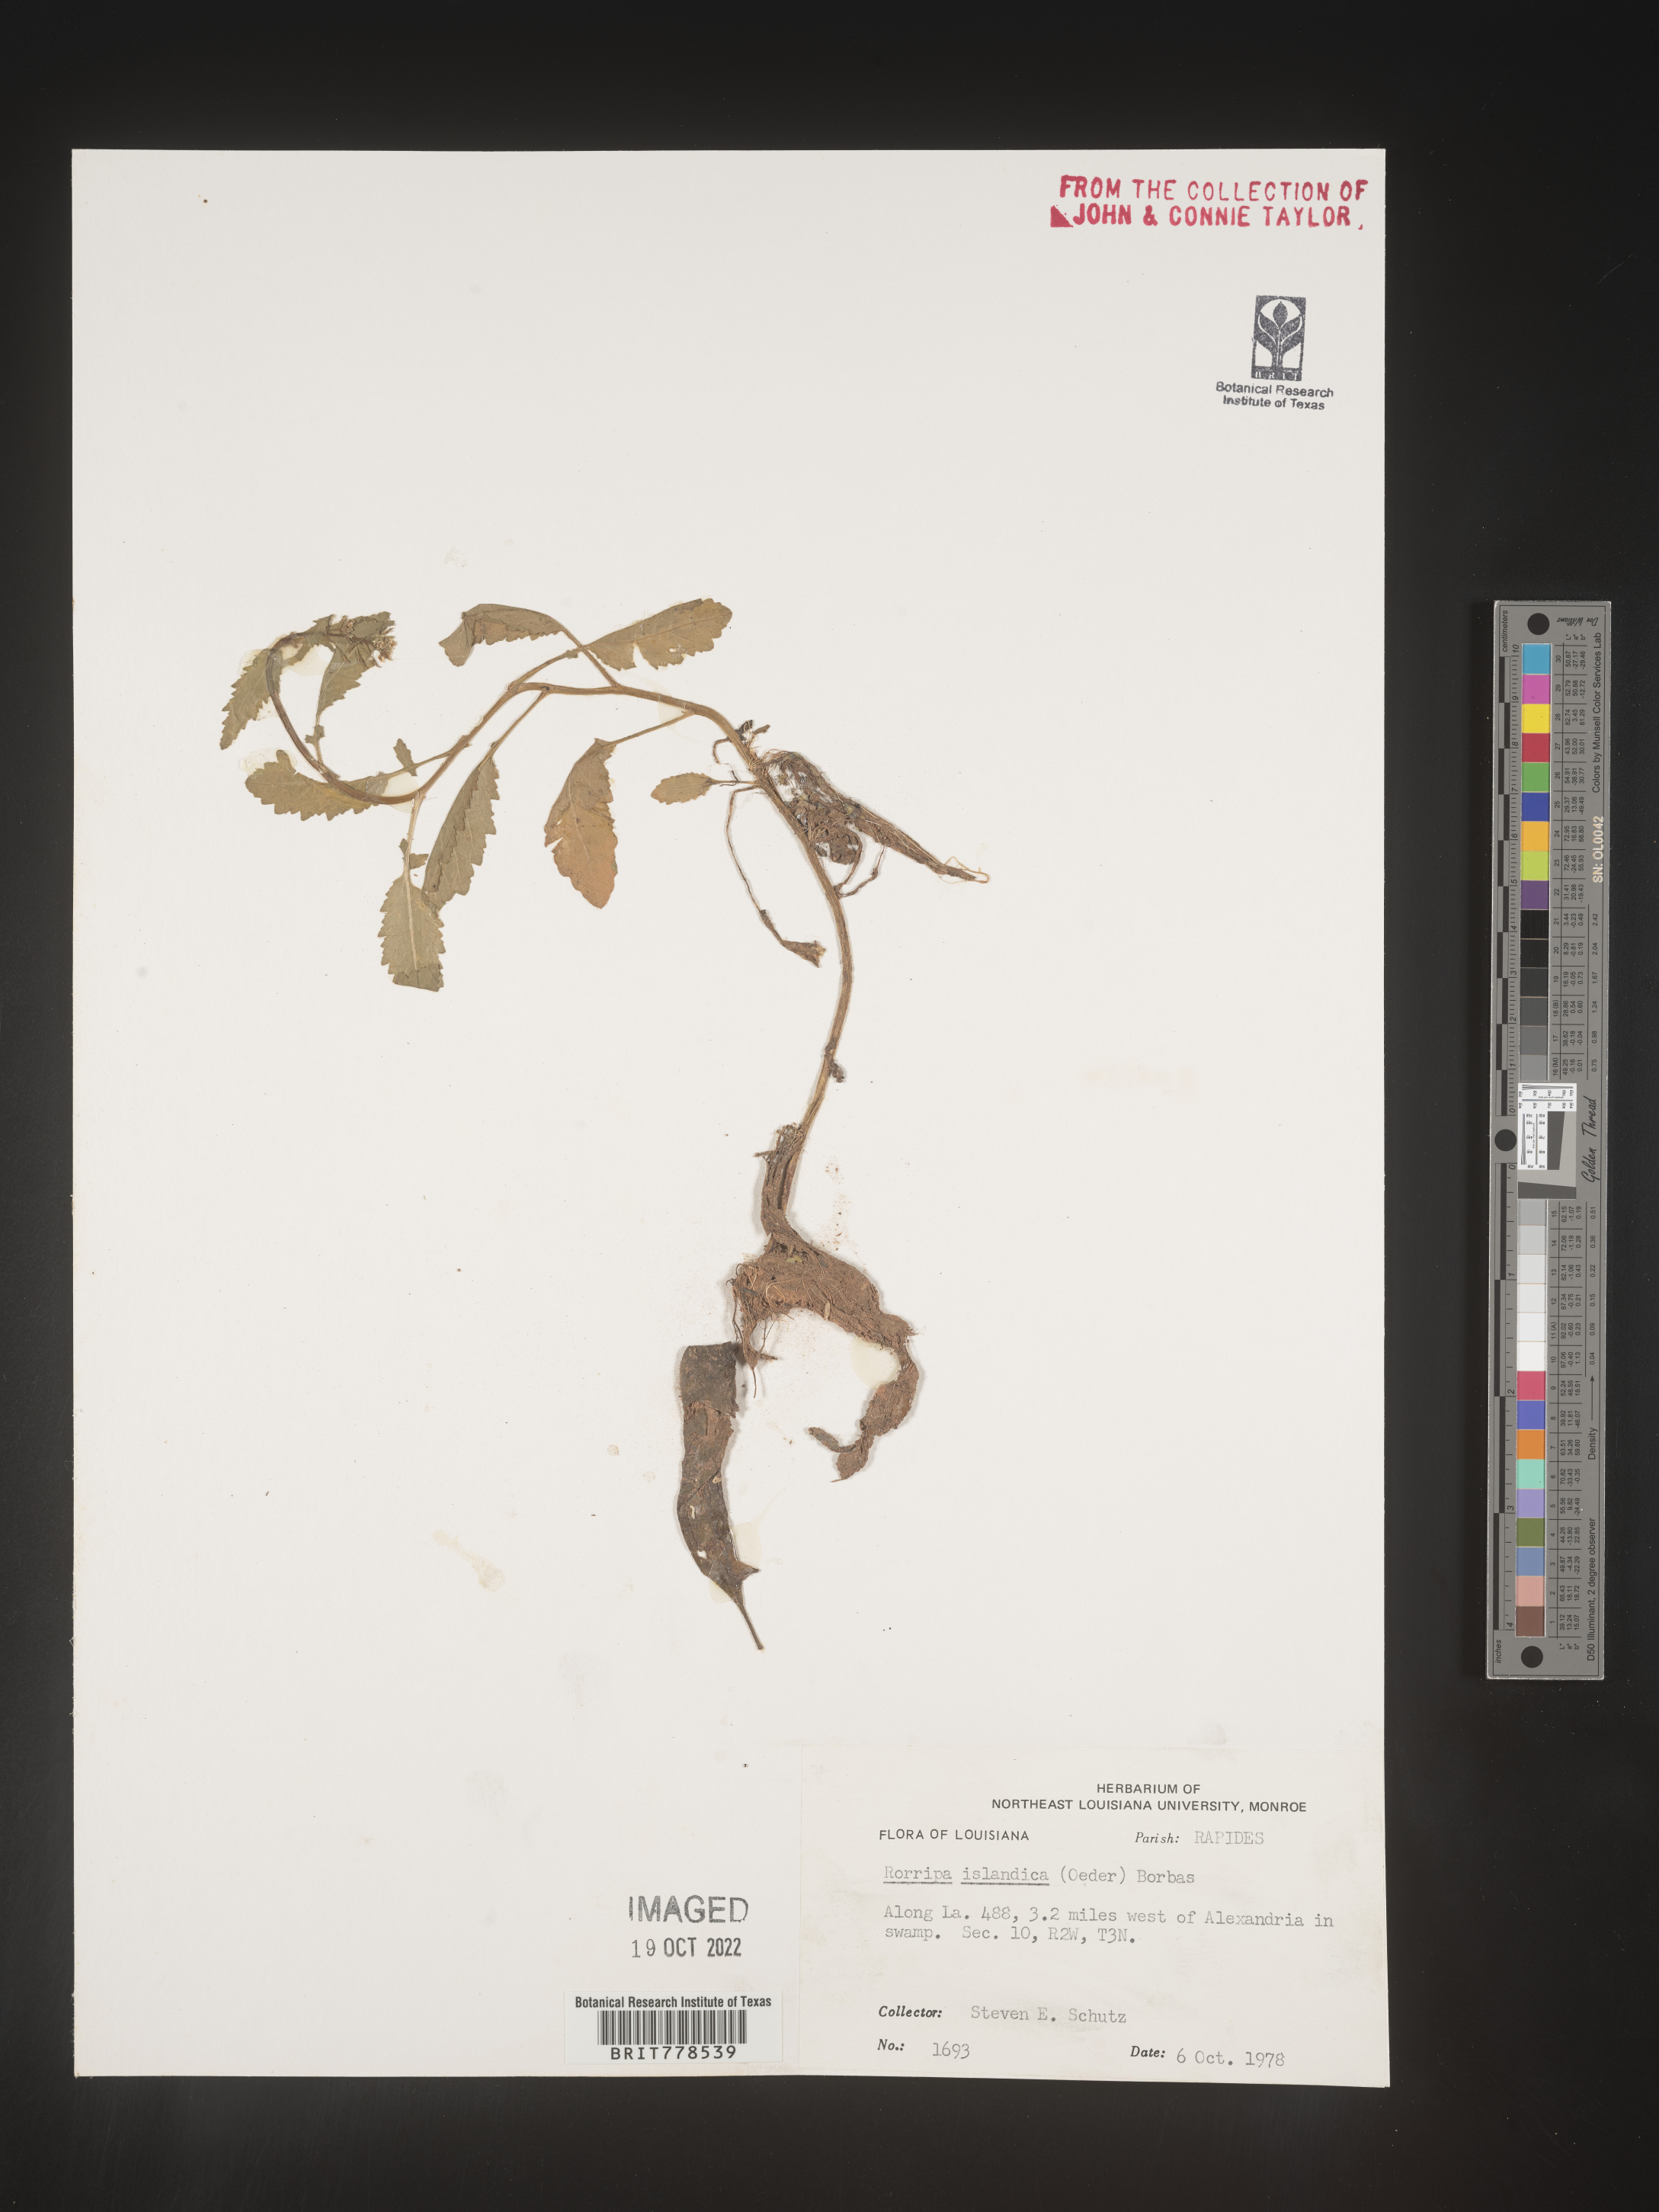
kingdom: Plantae
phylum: Tracheophyta
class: Magnoliopsida
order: Brassicales
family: Brassicaceae
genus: Rorippa
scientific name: Rorippa
